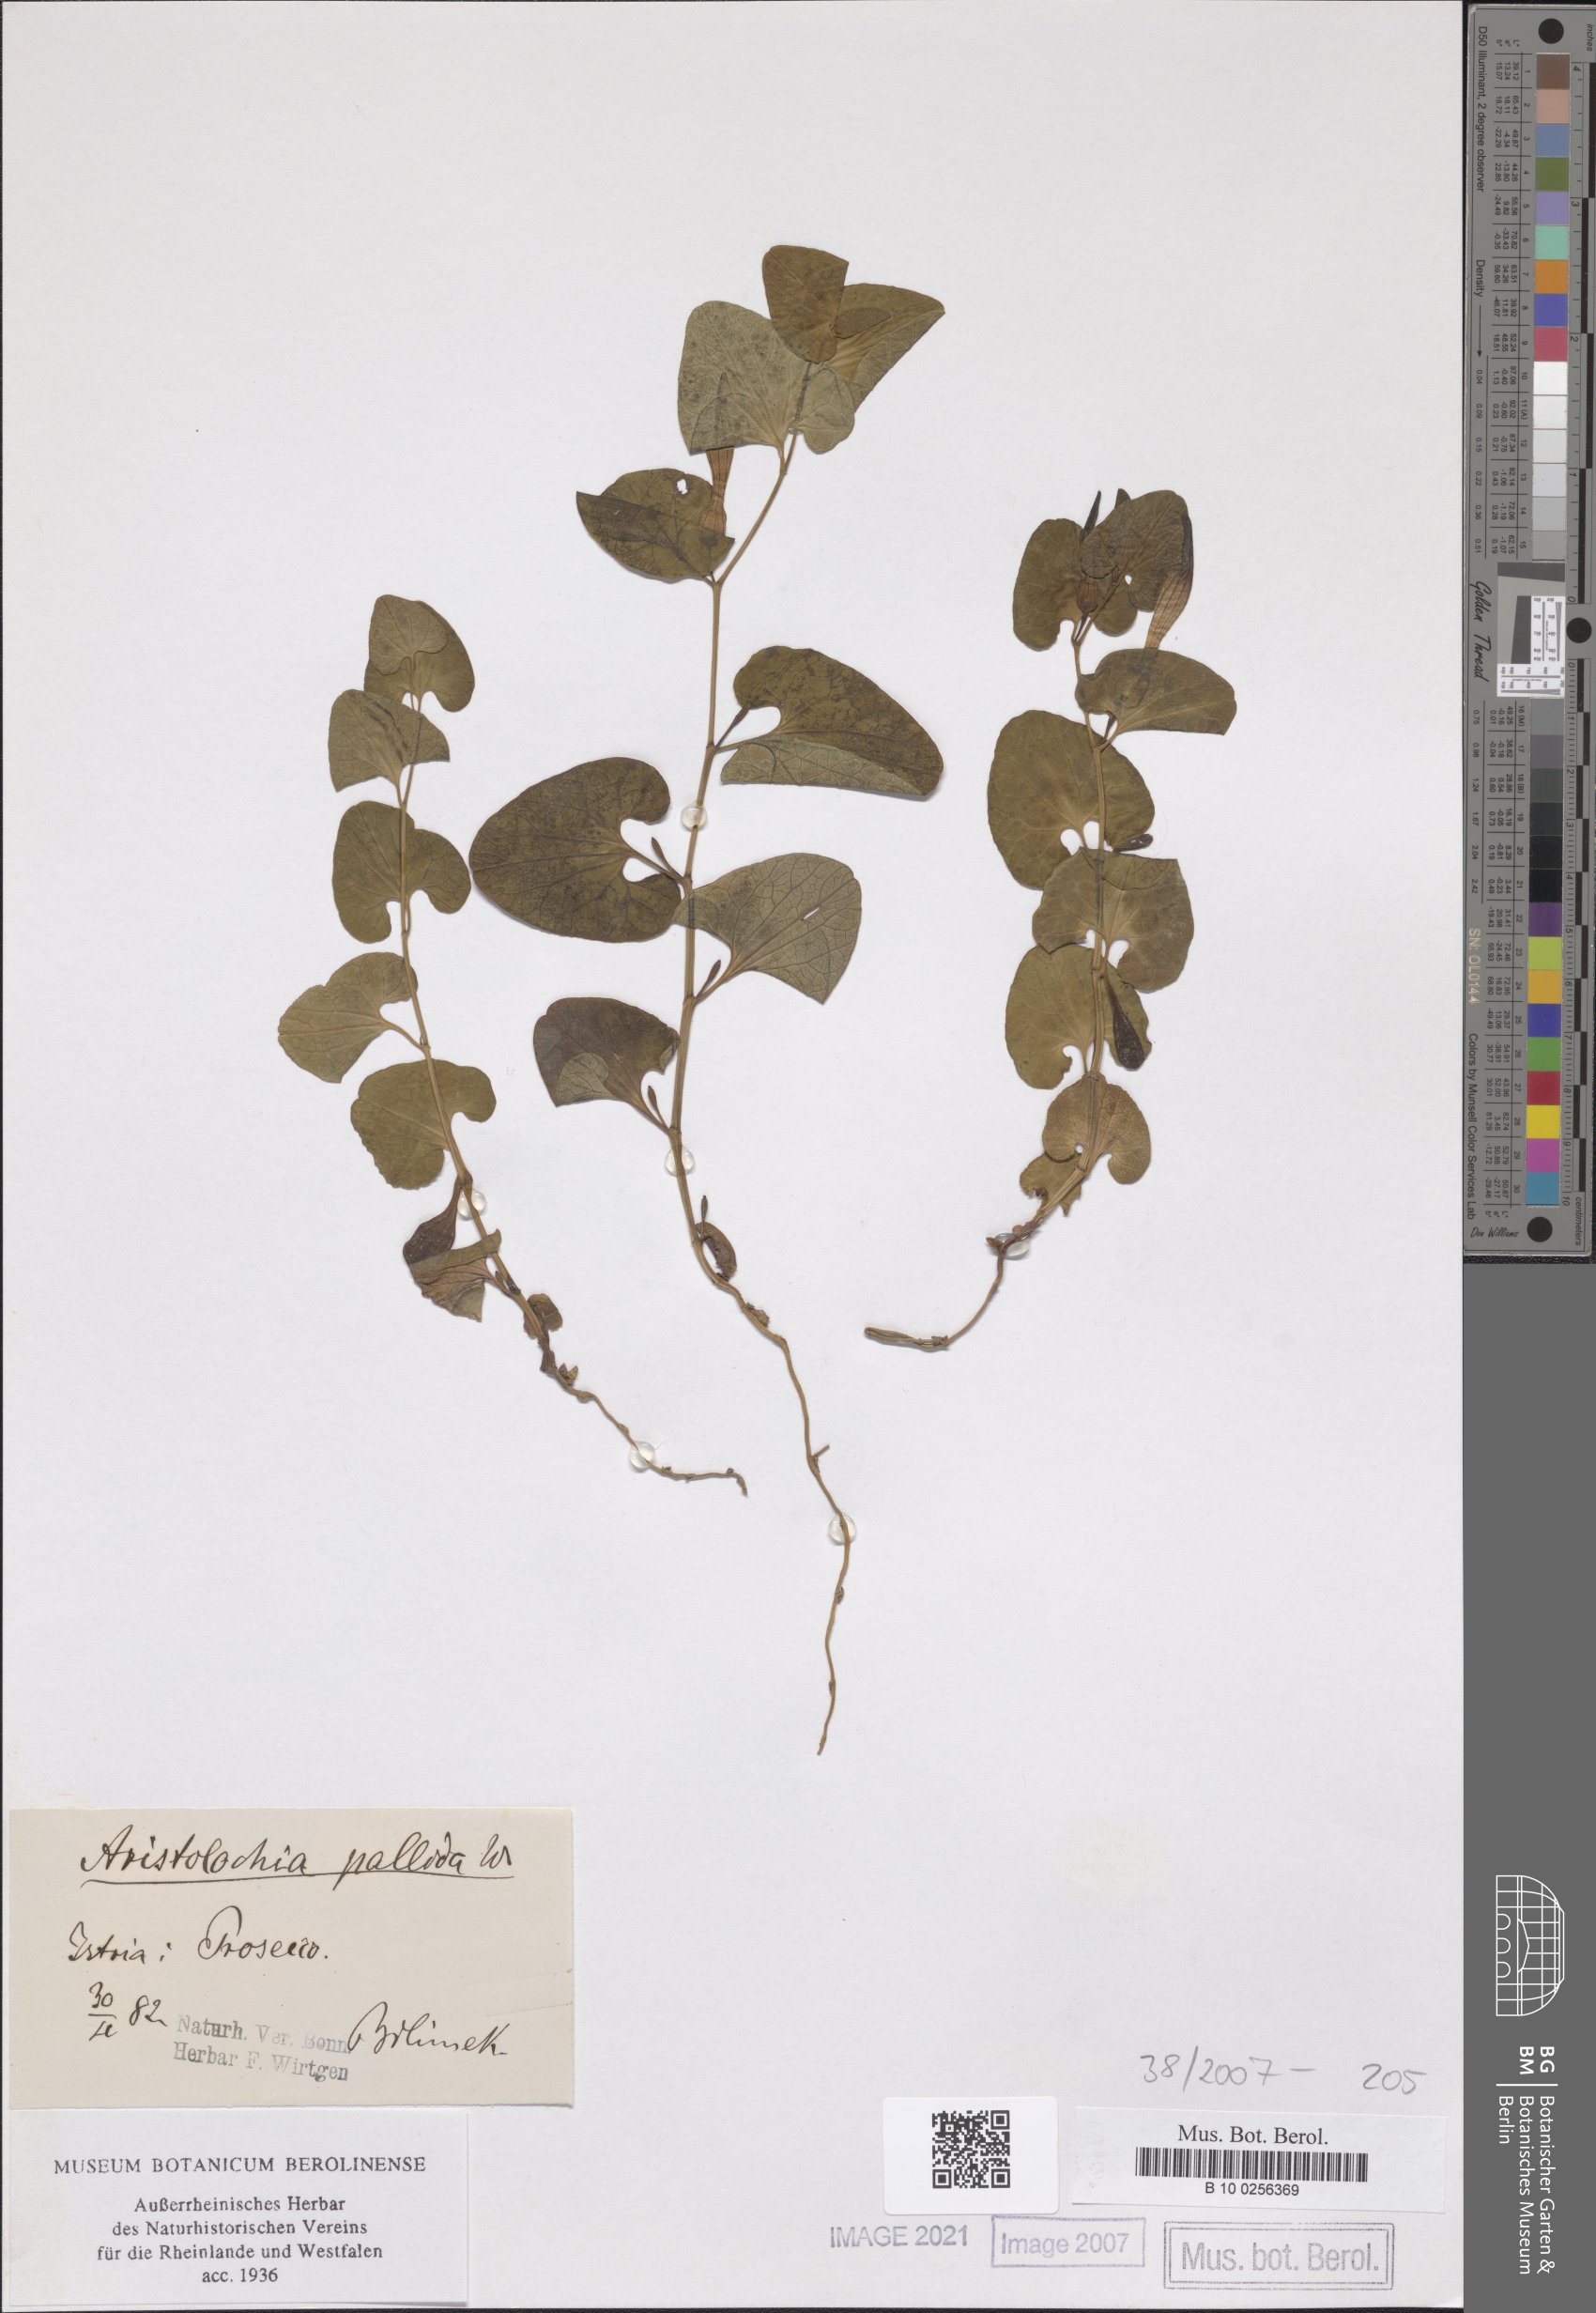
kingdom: Plantae
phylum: Tracheophyta
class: Magnoliopsida
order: Piperales
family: Aristolochiaceae
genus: Aristolochia
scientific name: Aristolochia pallida
